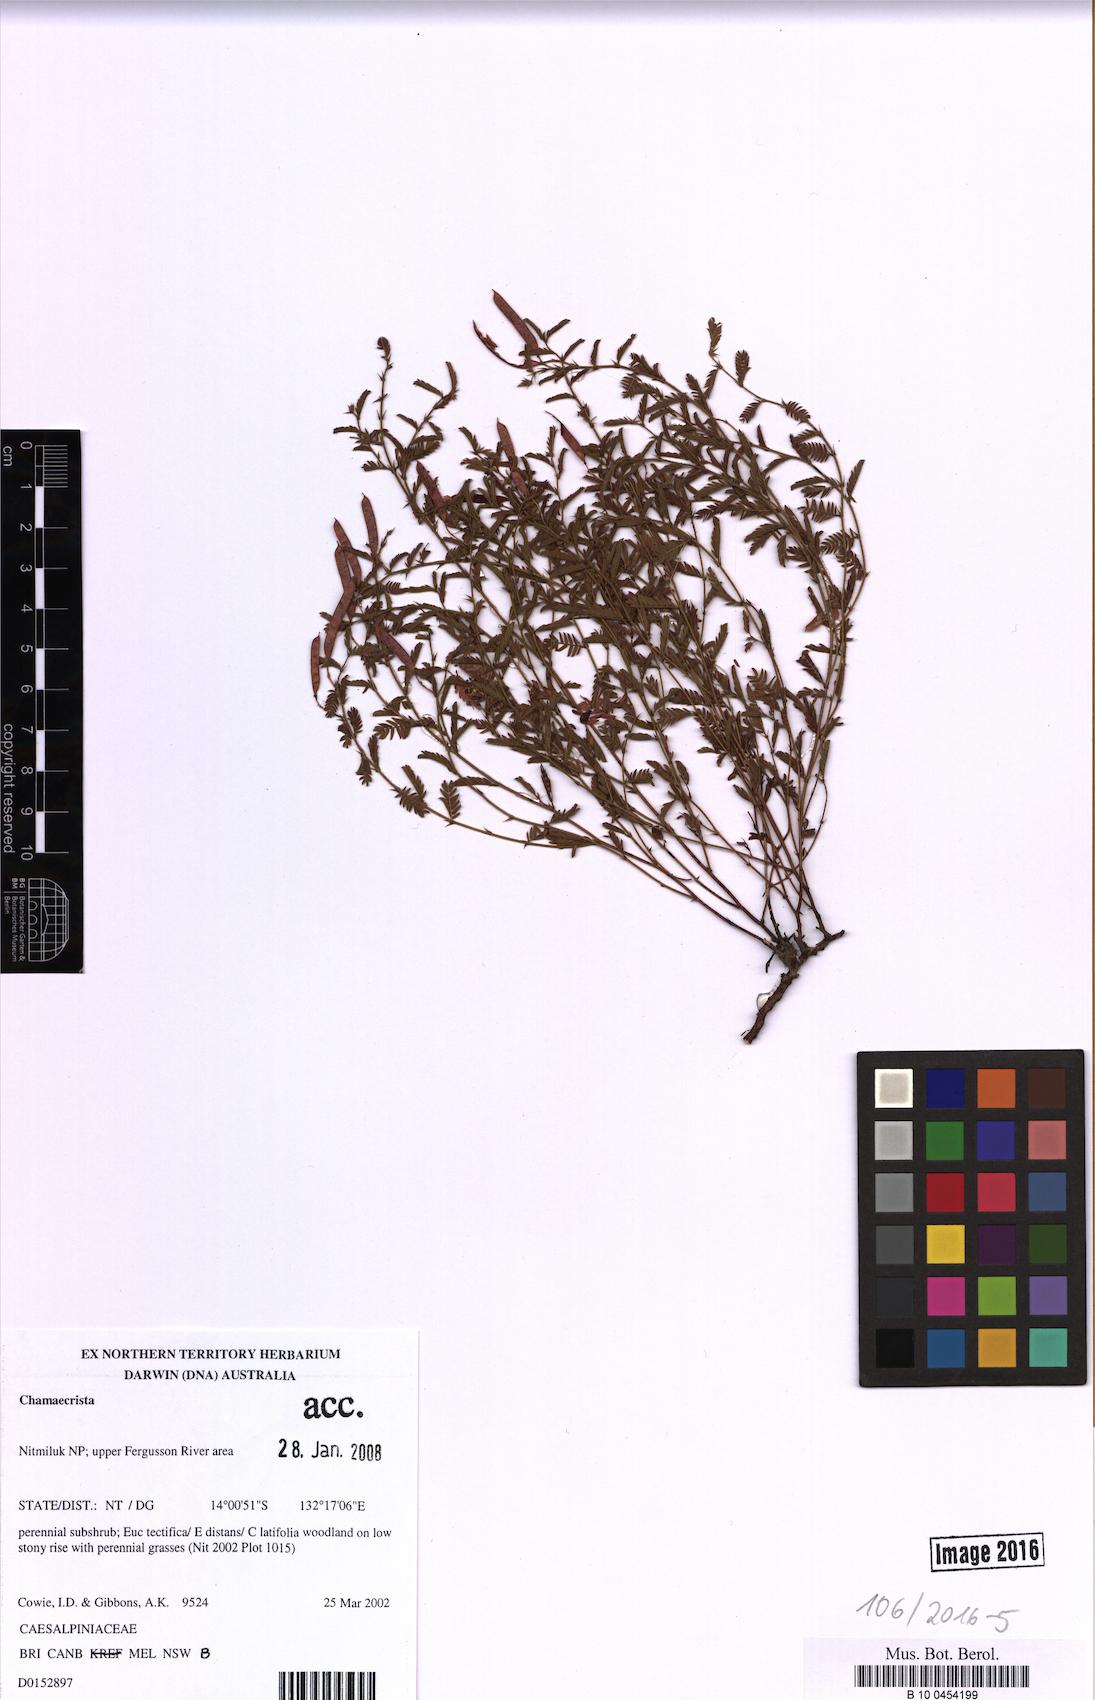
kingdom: Plantae
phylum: Tracheophyta
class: Magnoliopsida
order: Fabales
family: Fabaceae
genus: Chamaecrista
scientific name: Chamaecrista
